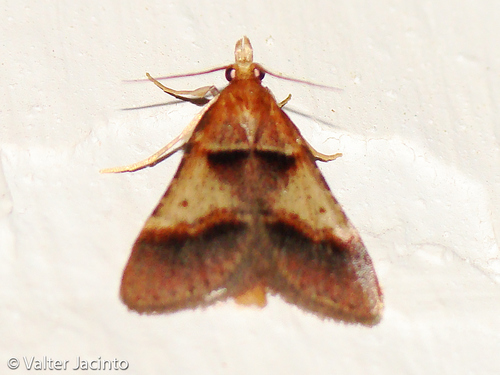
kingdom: Animalia
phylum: Arthropoda
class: Insecta
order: Lepidoptera
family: Pyralidae
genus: Stemmatophora
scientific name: Stemmatophora brunnealis
